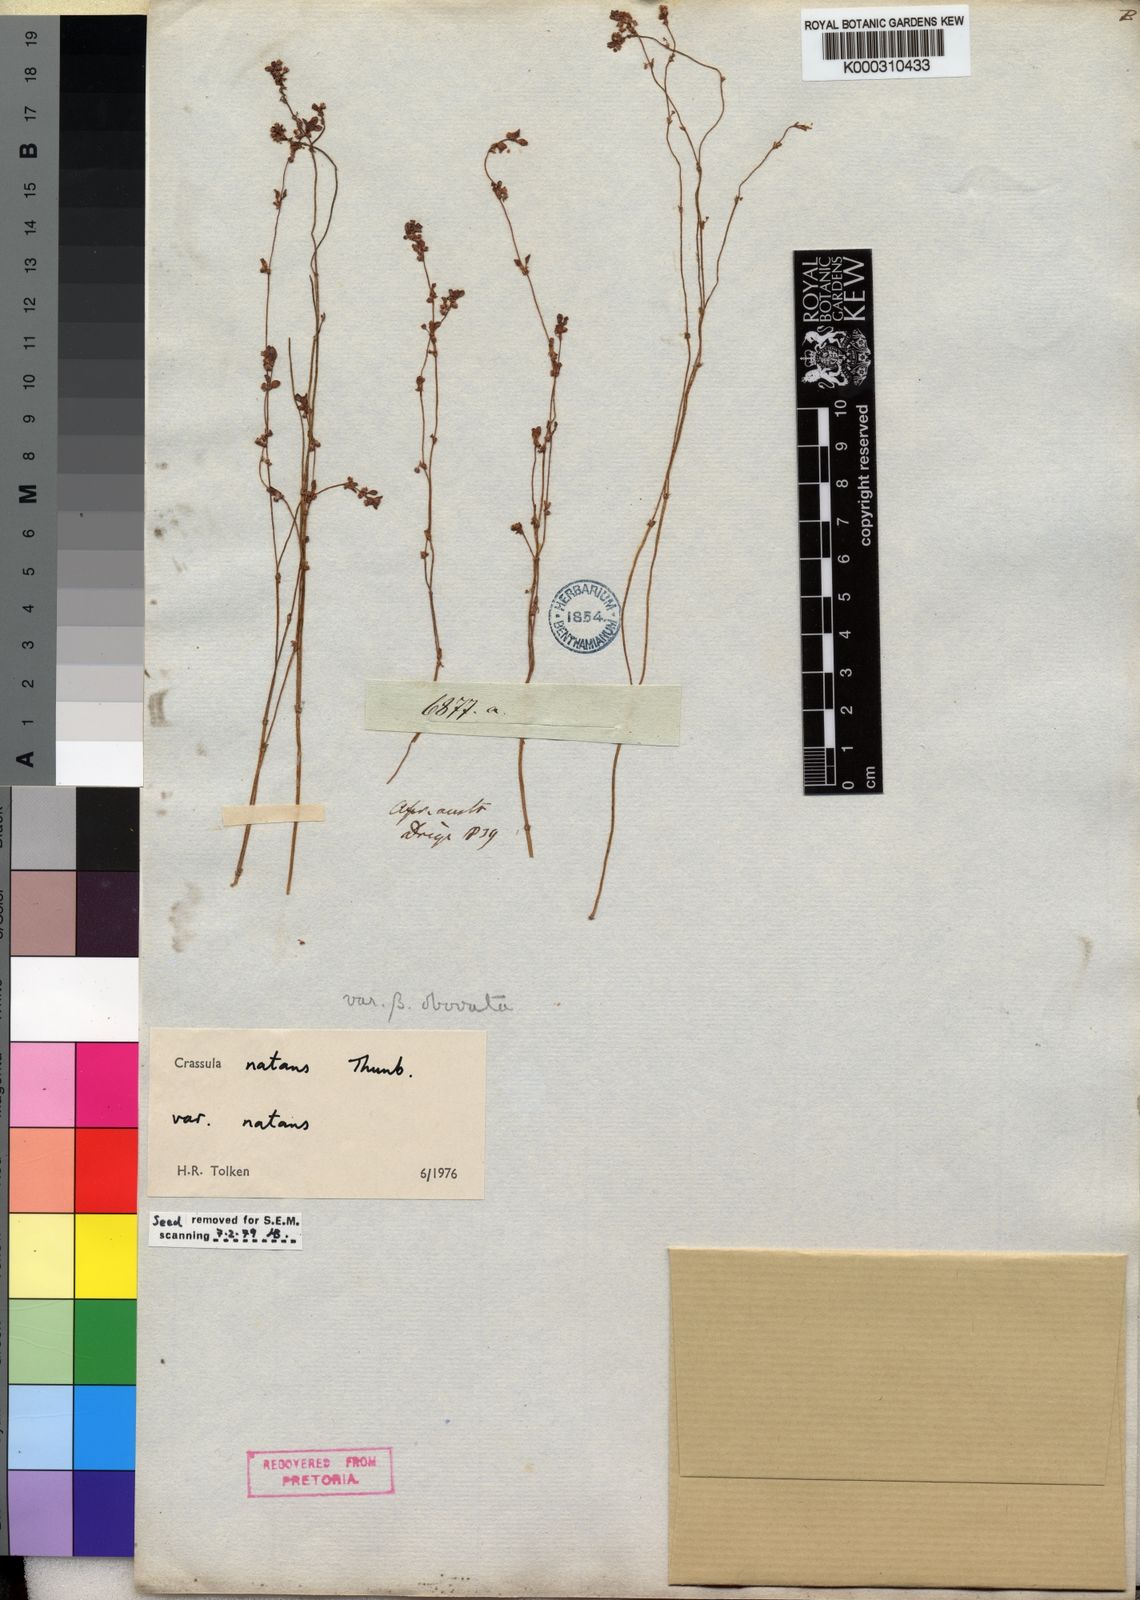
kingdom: Plantae
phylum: Tracheophyta
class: Magnoliopsida
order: Saxifragales
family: Crassulaceae
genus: Crassula
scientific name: Crassula natans
